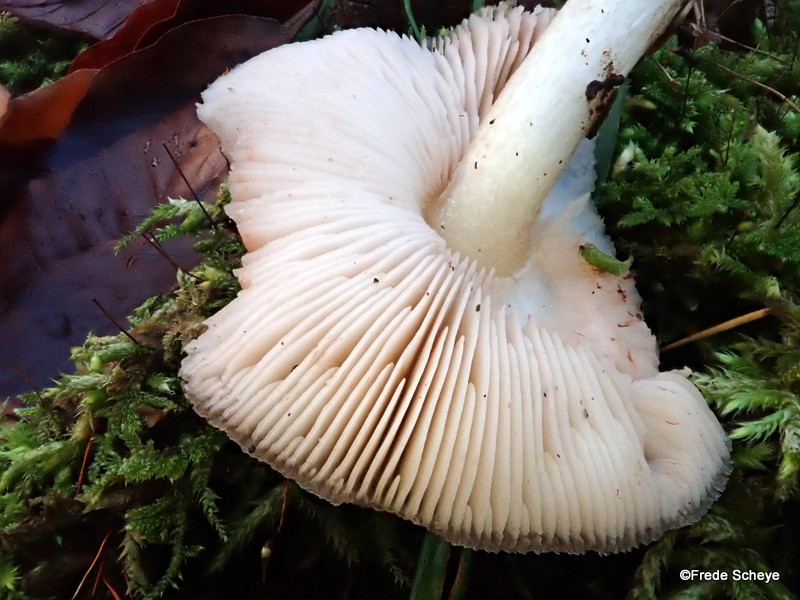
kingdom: Fungi
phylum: Basidiomycota
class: Agaricomycetes
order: Agaricales
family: Pluteaceae
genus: Pluteus
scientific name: Pluteus cervinus
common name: sodfarvet skærmhat
